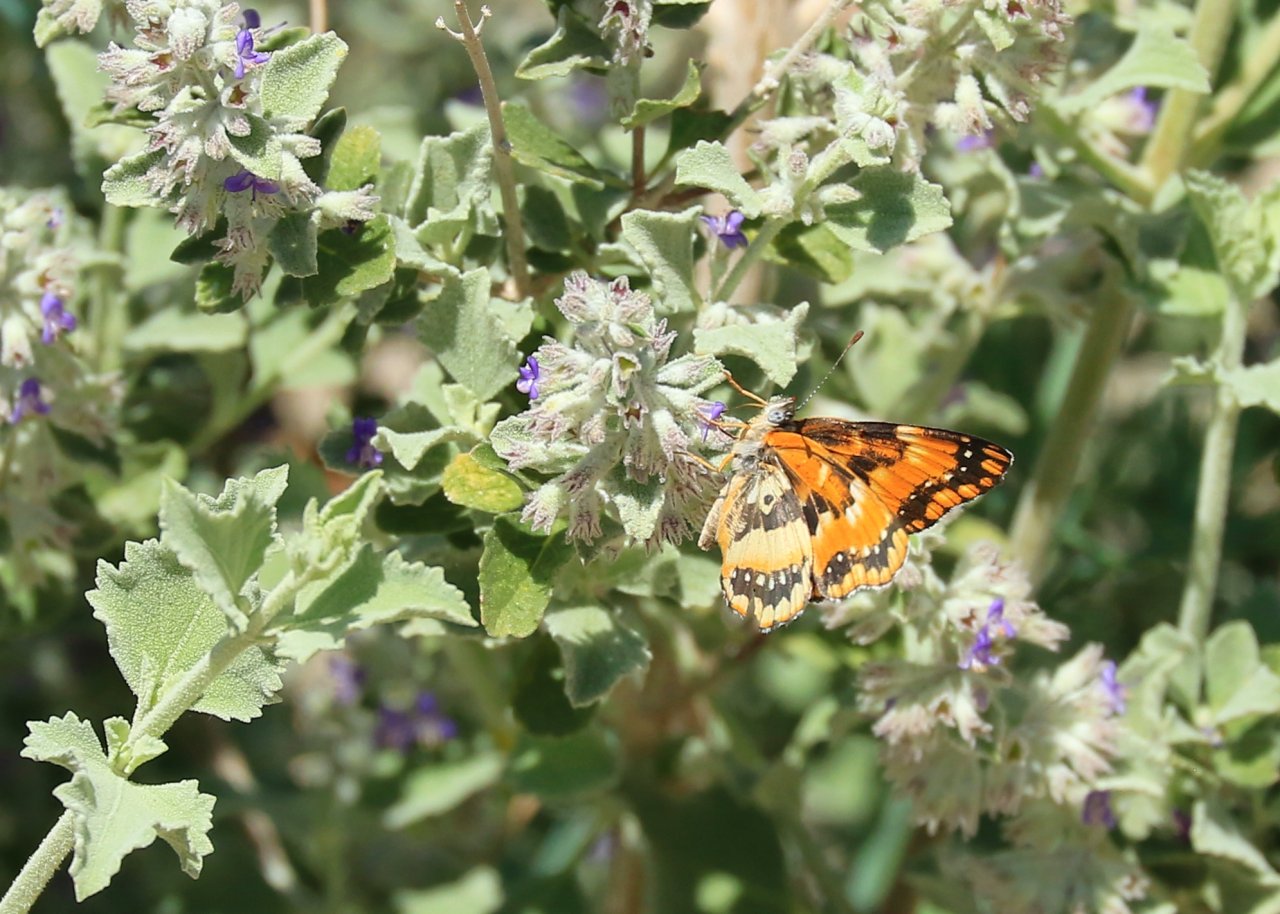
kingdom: Animalia
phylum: Arthropoda
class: Insecta
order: Lepidoptera
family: Nymphalidae
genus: Chlosyne
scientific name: Chlosyne californica
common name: California Patch
